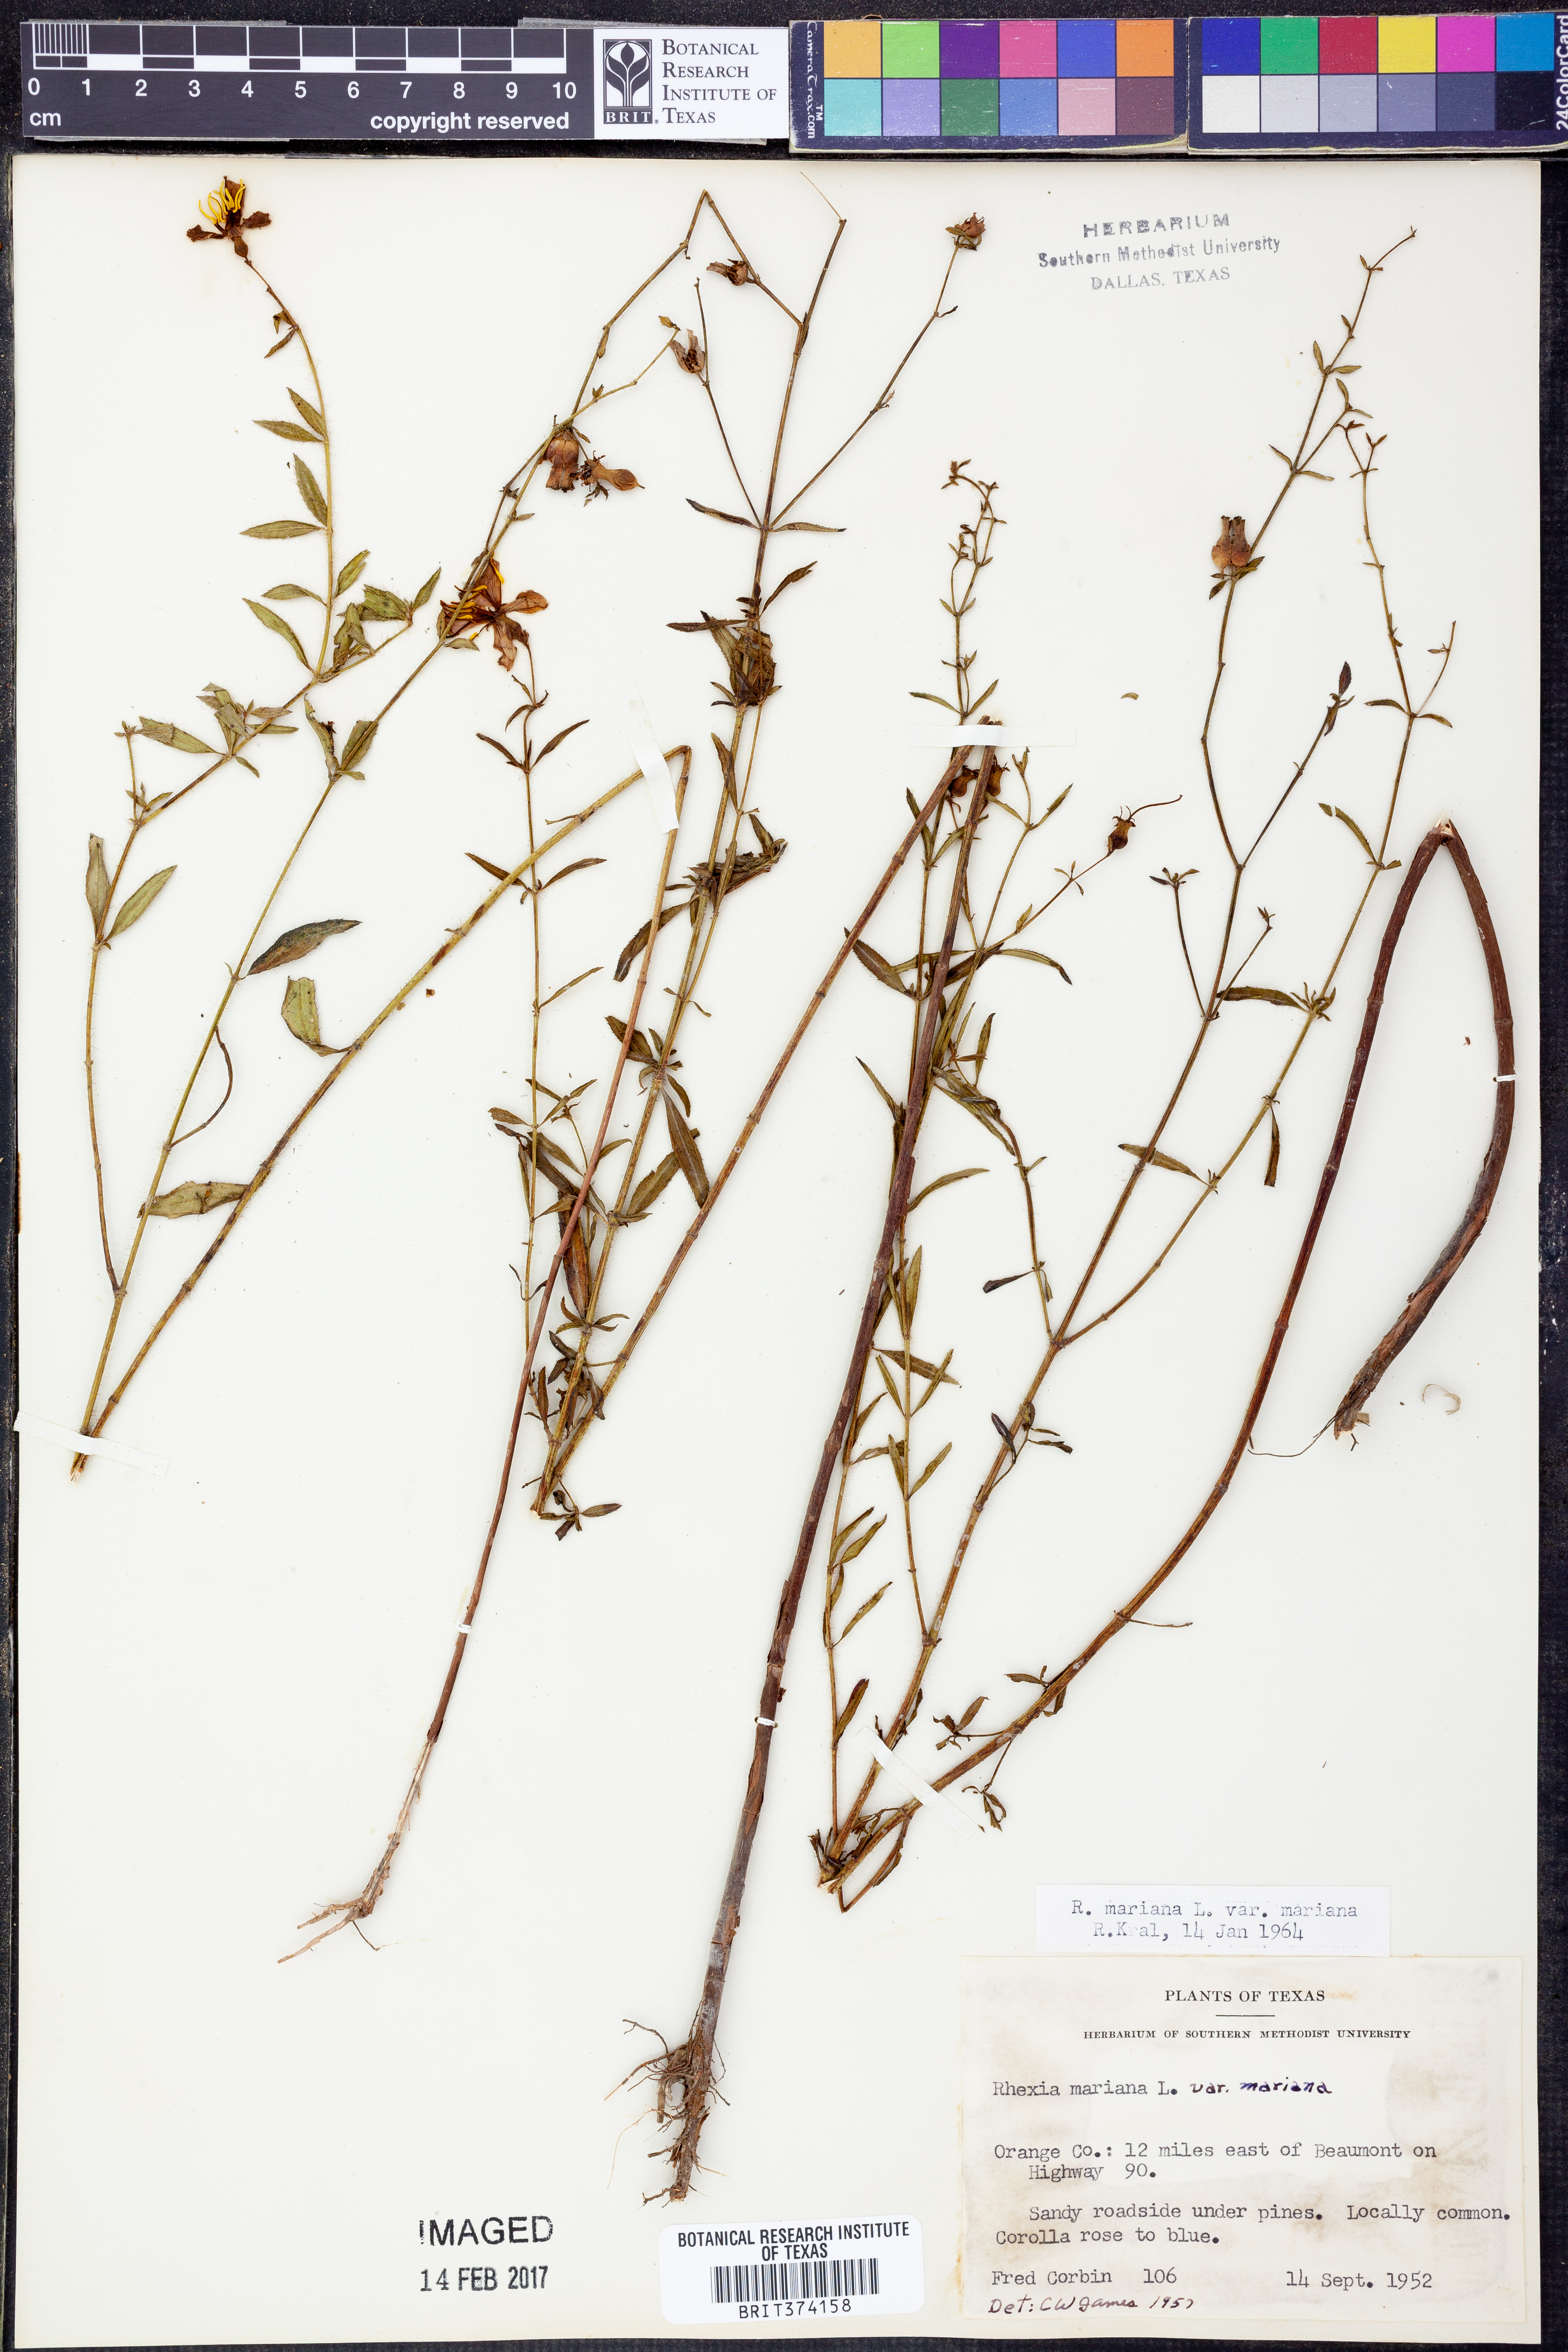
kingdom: Plantae
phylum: Tracheophyta
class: Magnoliopsida
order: Myrtales
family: Melastomataceae
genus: Rhexia
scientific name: Rhexia mariana
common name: Dull meadow-pitcher
